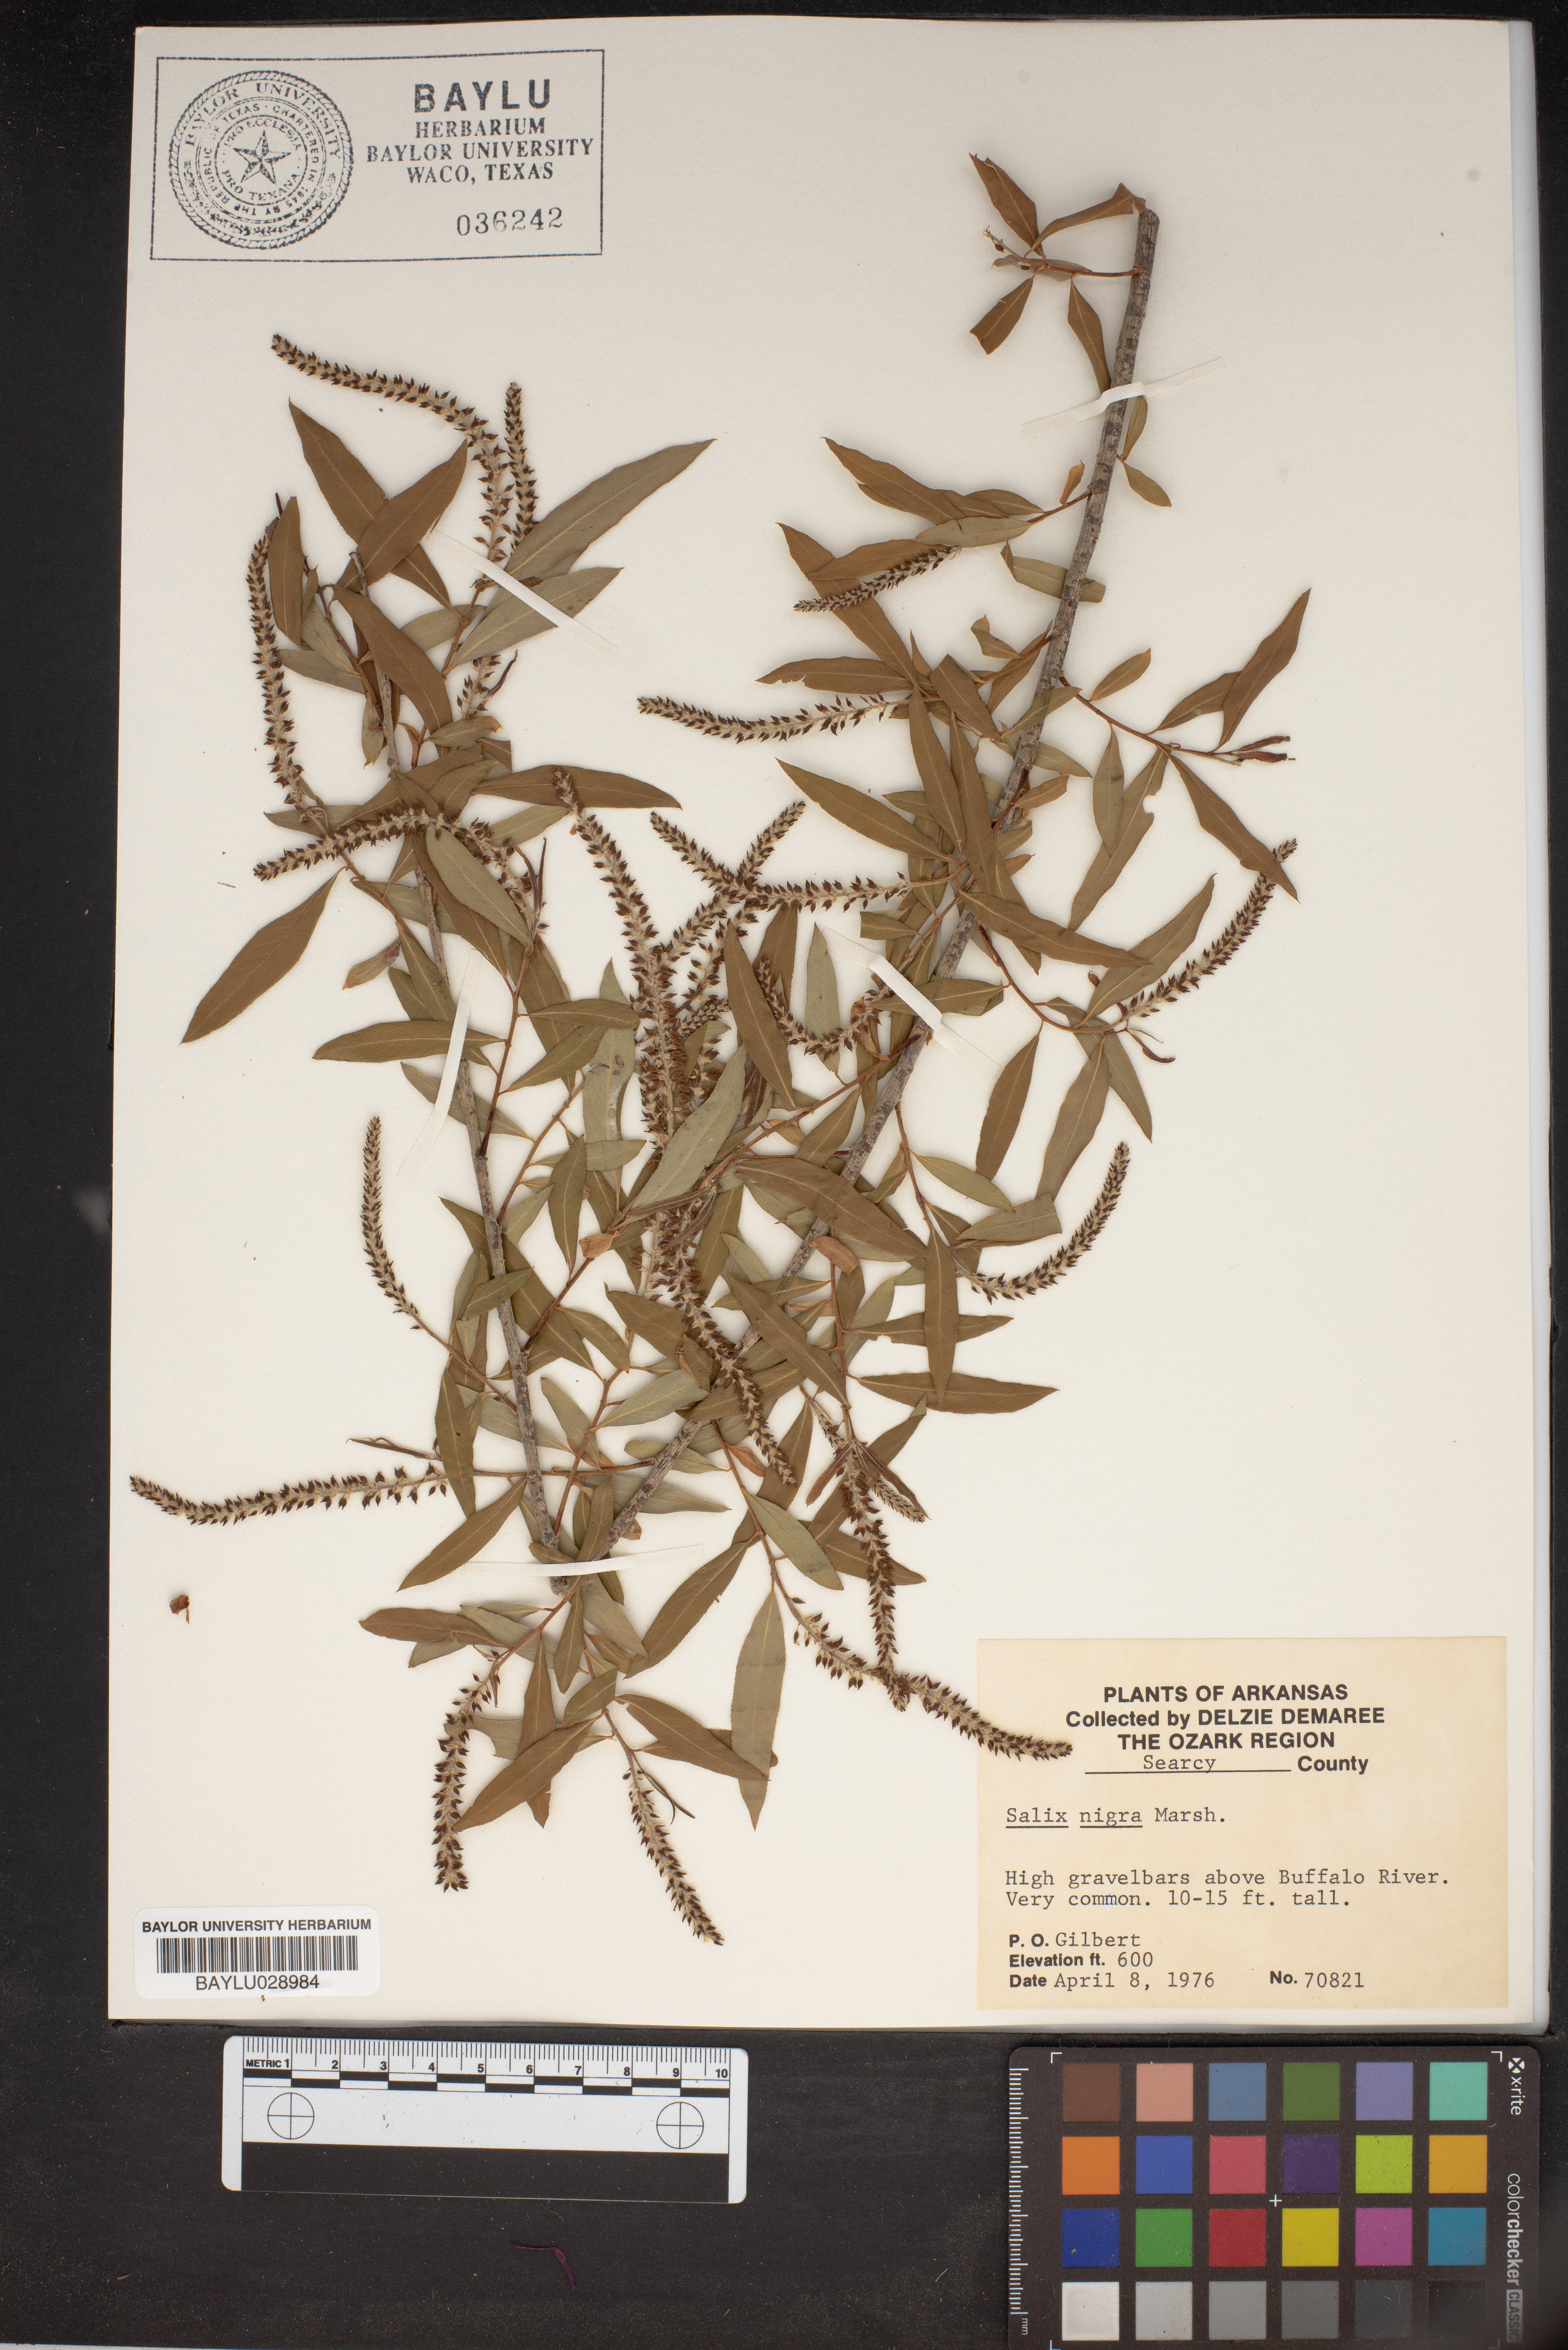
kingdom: Plantae
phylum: Tracheophyta
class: Magnoliopsida
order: Malpighiales
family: Salicaceae
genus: Salix
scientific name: Salix nigra
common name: Black willow
